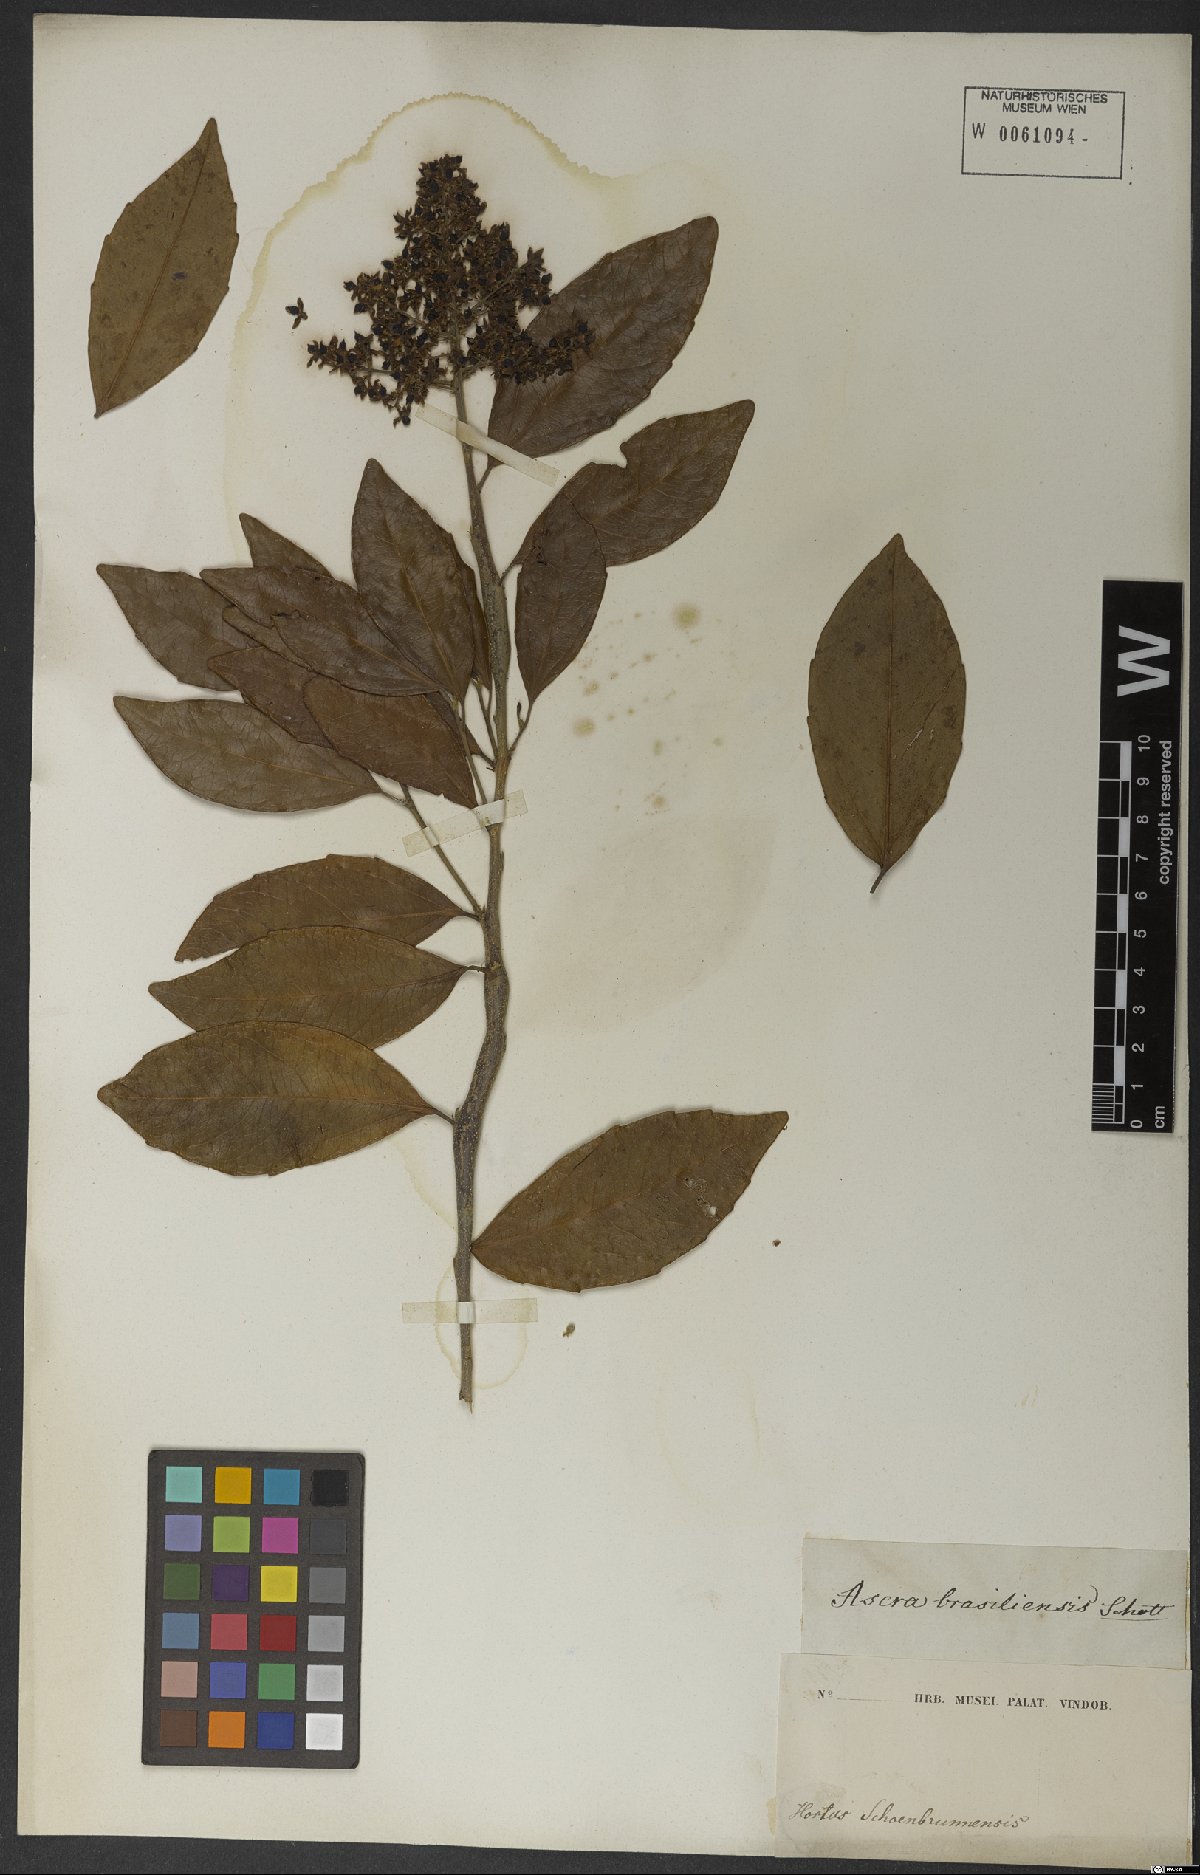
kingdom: Plantae
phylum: Tracheophyta
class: Magnoliopsida
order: Malpighiales
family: Salicaceae
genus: Banara
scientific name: Banara brasiliensis
